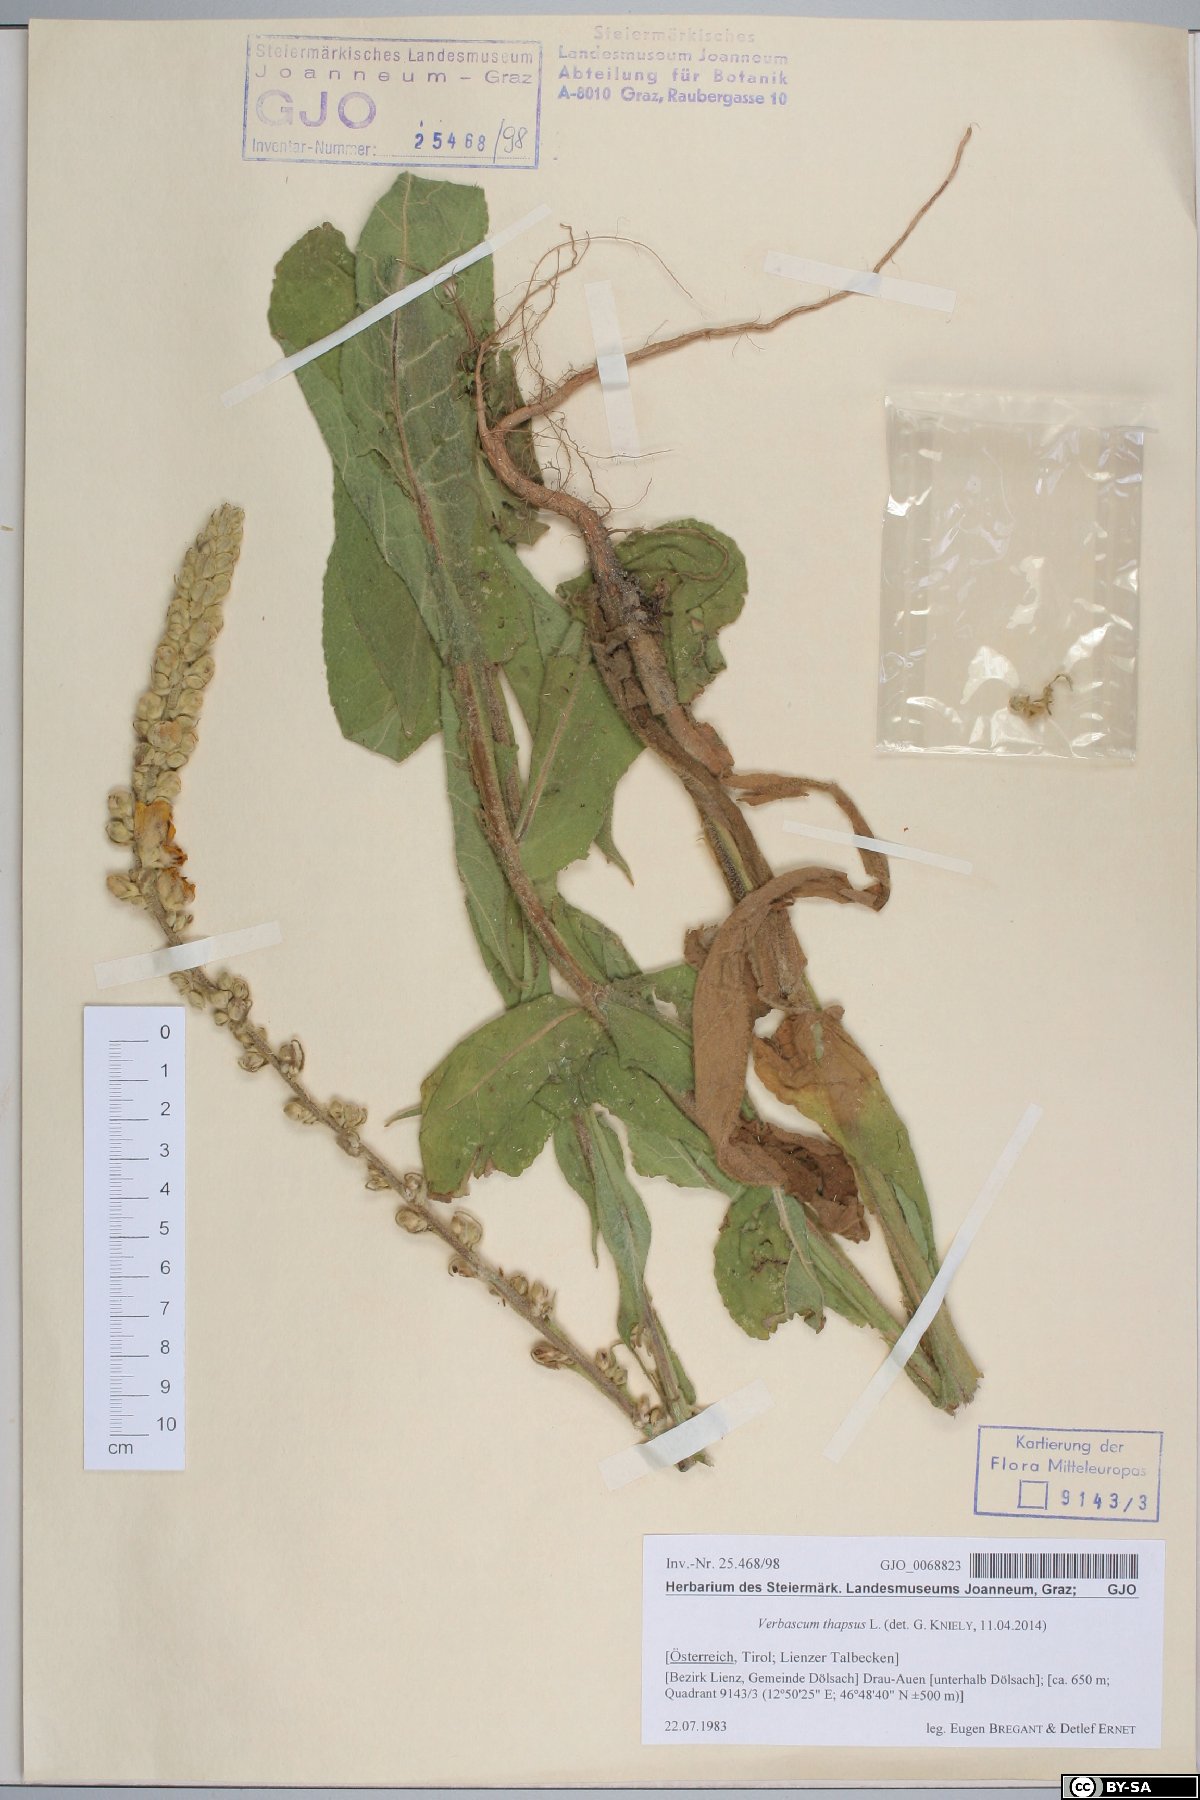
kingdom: Plantae
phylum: Tracheophyta
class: Magnoliopsida
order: Lamiales
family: Scrophulariaceae
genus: Verbascum
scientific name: Verbascum thapsus
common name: Common mullein
